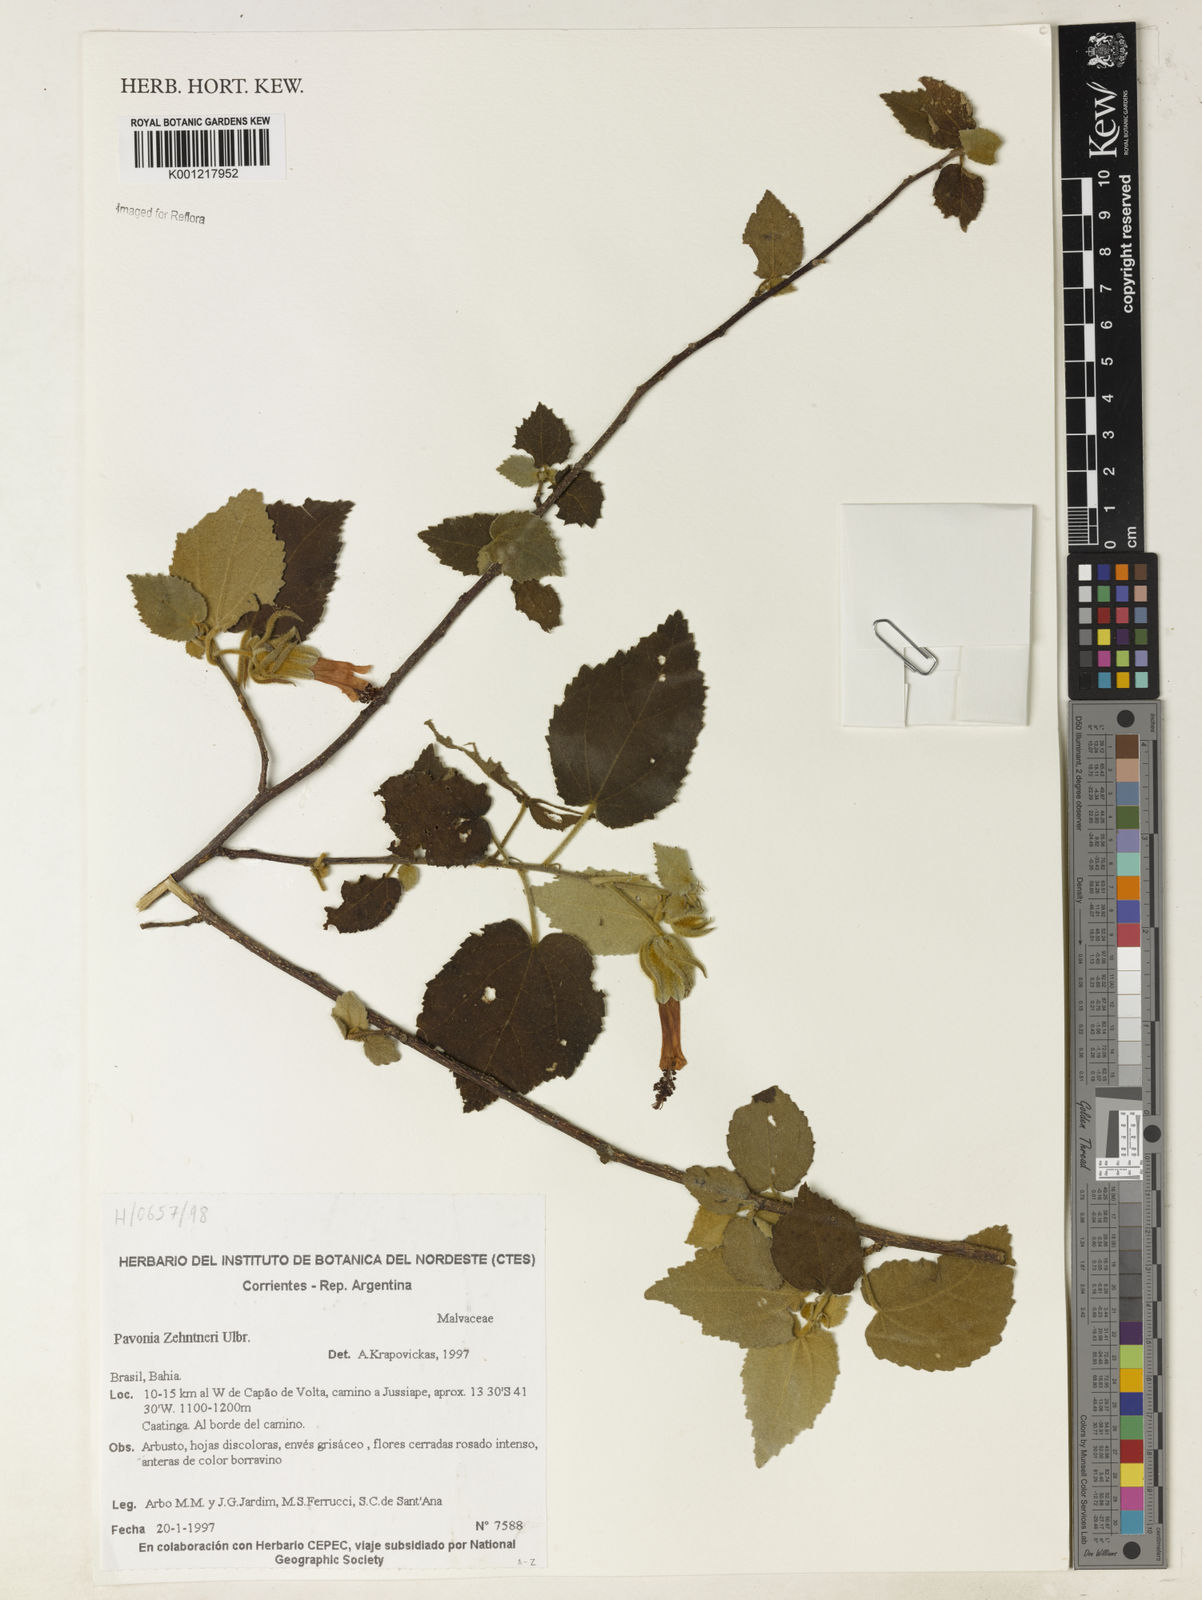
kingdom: Plantae
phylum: Tracheophyta
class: Magnoliopsida
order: Malvales
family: Malvaceae
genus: Pavonia
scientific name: Pavonia zehntneri
